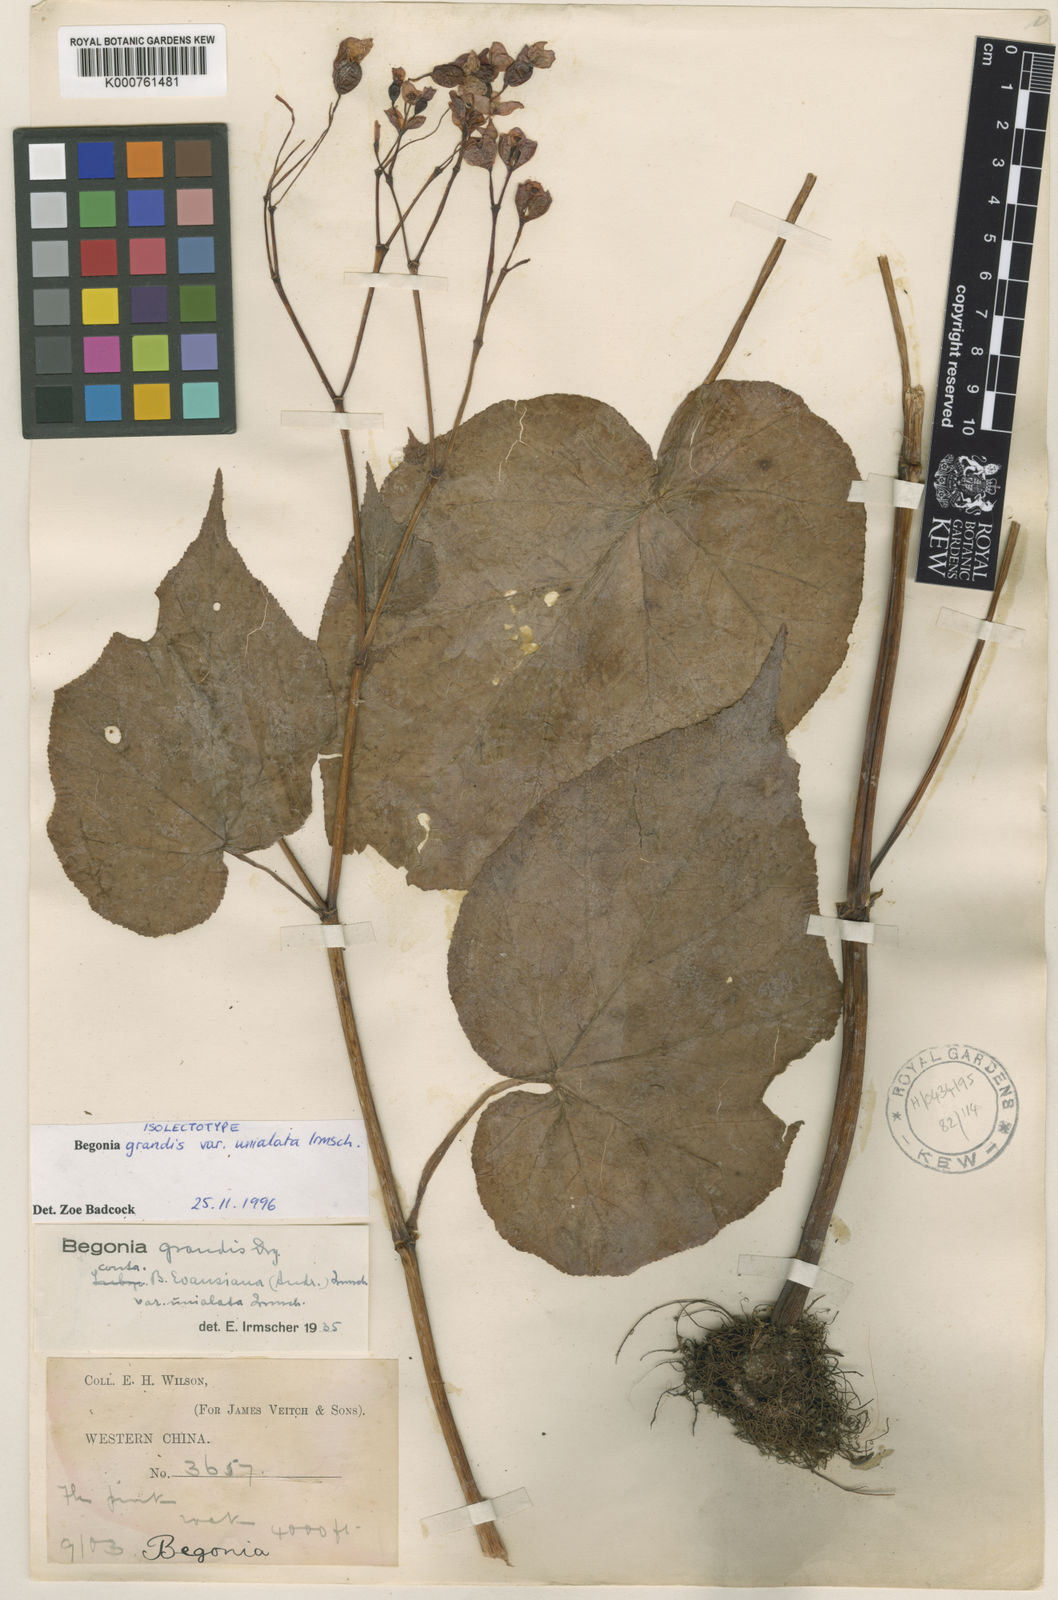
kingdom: Plantae
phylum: Tracheophyta
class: Magnoliopsida
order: Cucurbitales
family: Begoniaceae
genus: Begonia
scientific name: Begonia grandis
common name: Hardy begonia
